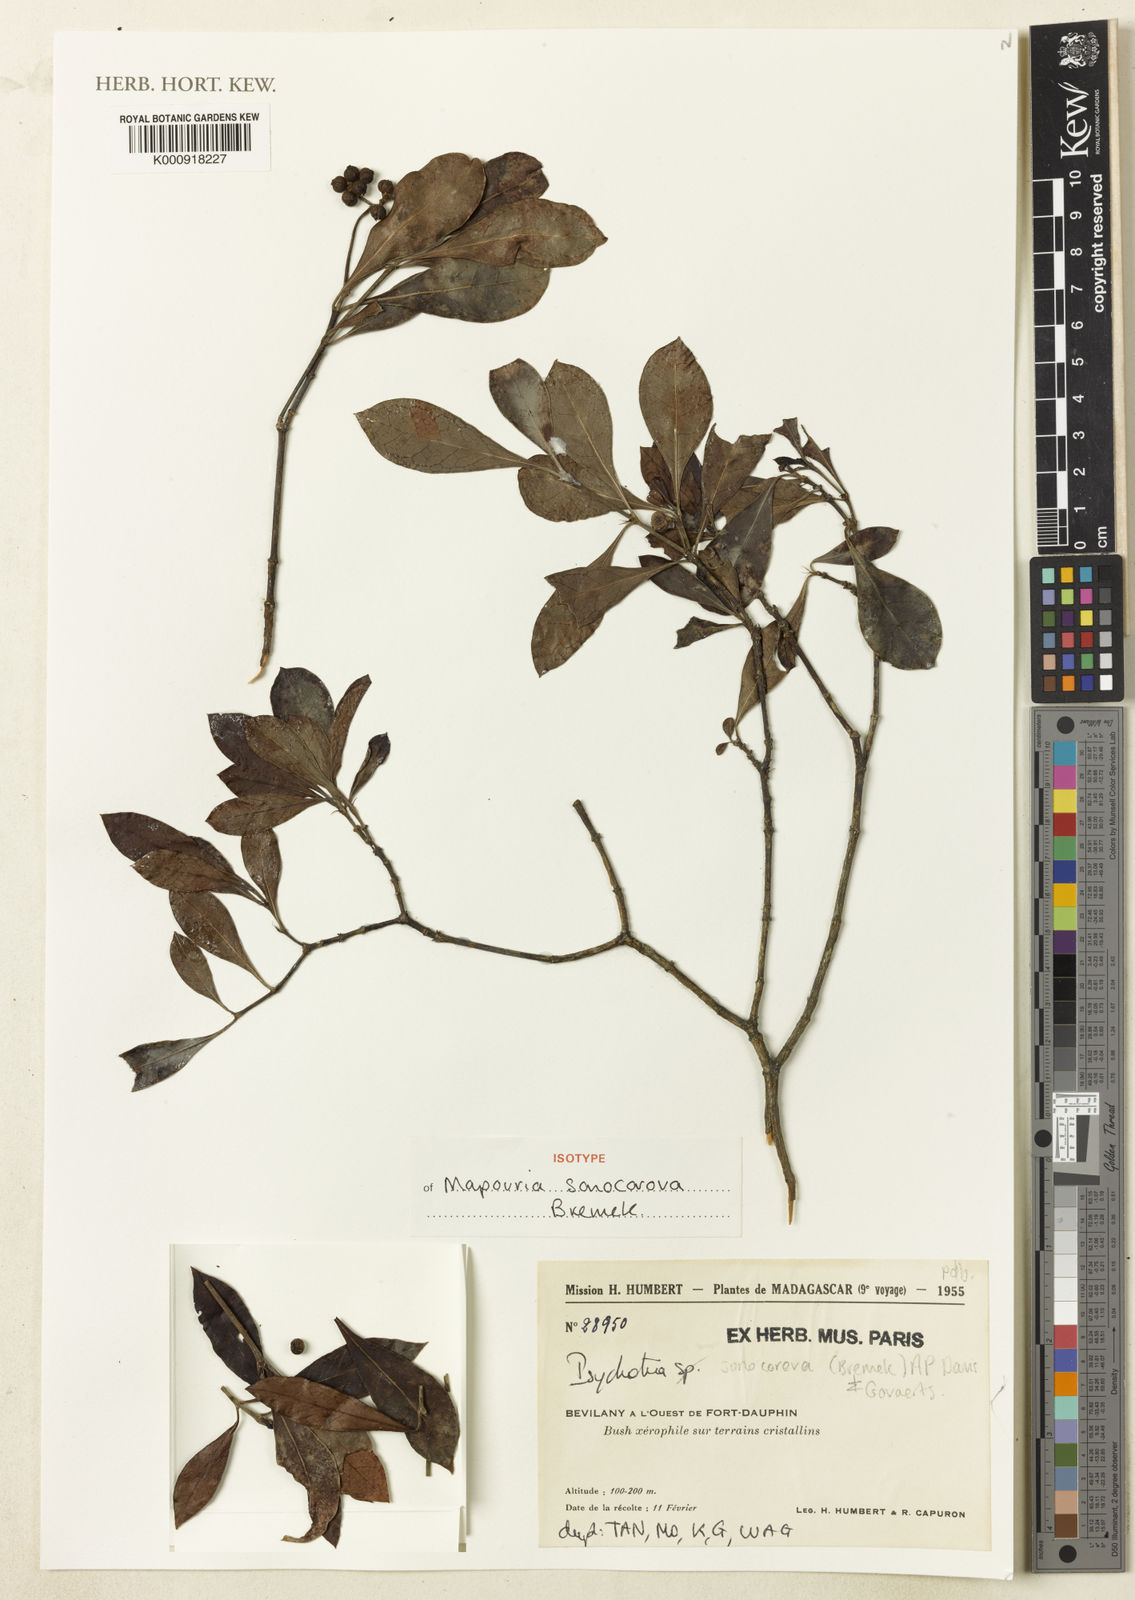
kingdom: Plantae
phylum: Tracheophyta
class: Magnoliopsida
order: Gentianales
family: Rubiaceae
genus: Psychotria
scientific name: Psychotria sonocorova
